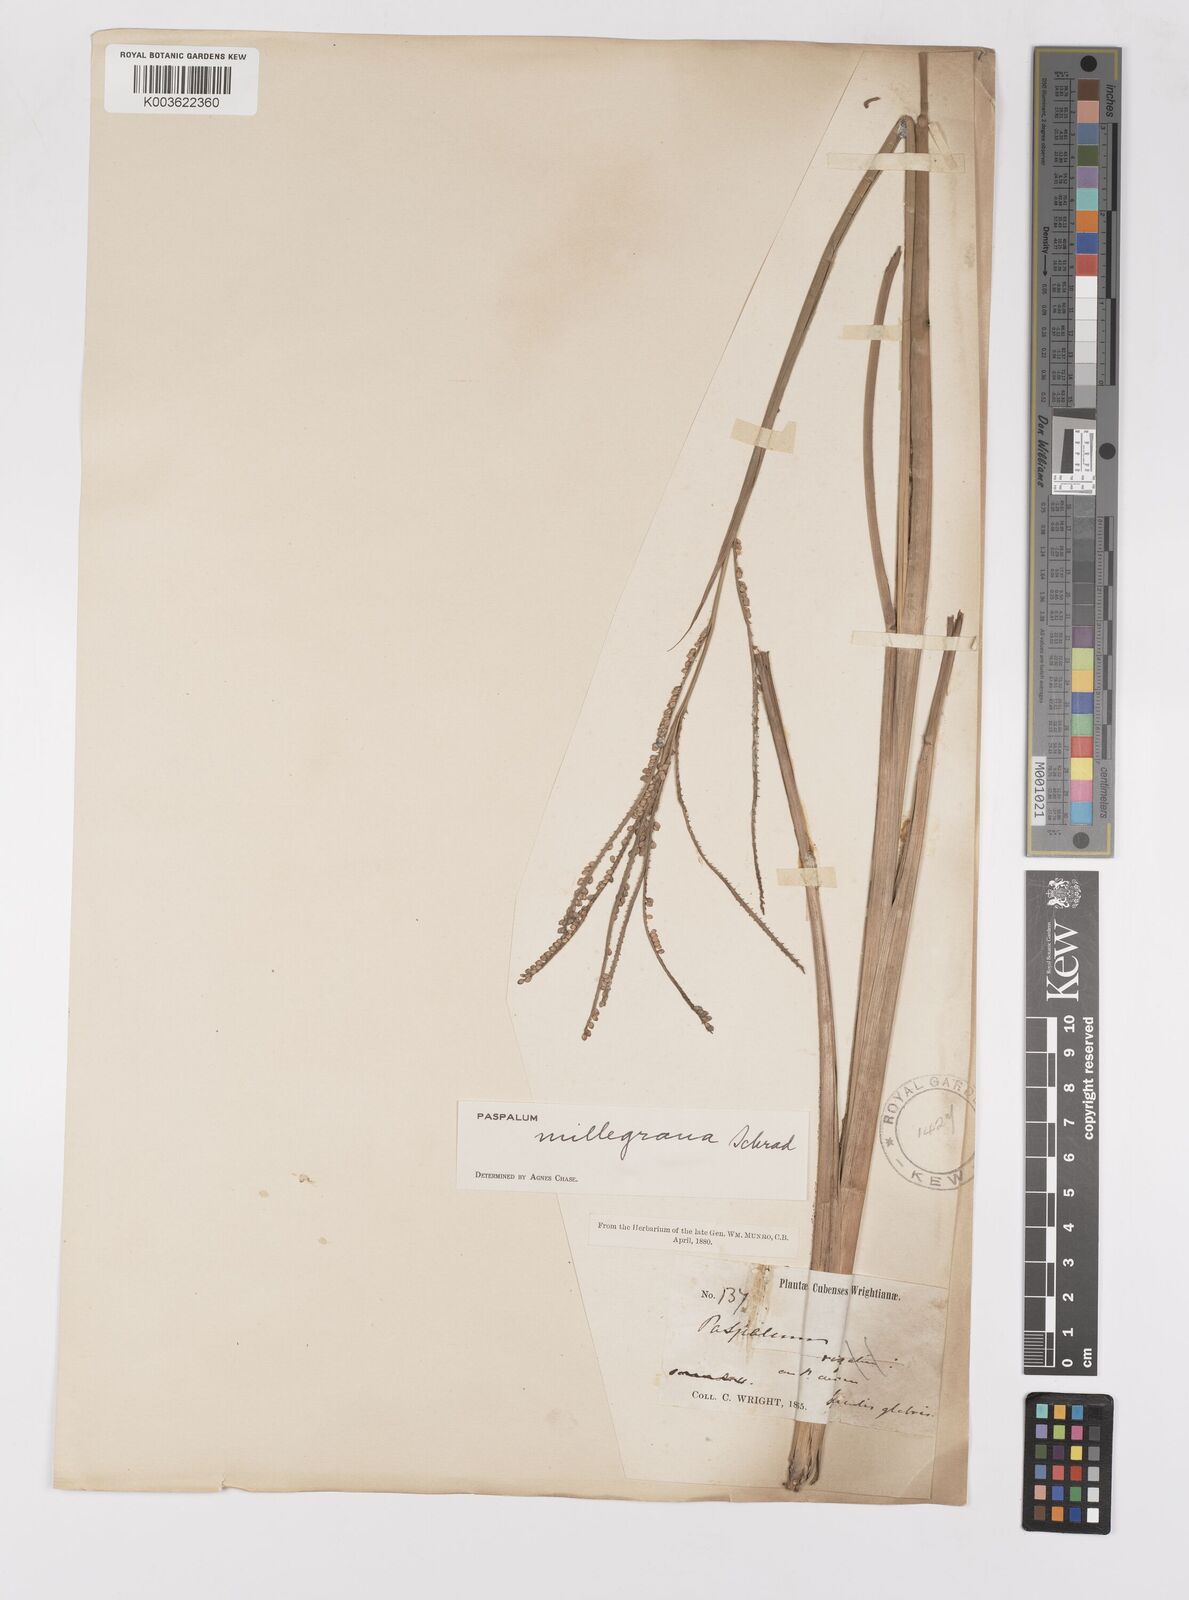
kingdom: Plantae
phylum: Tracheophyta
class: Liliopsida
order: Poales
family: Poaceae
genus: Paspalum
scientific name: Paspalum millegranum
